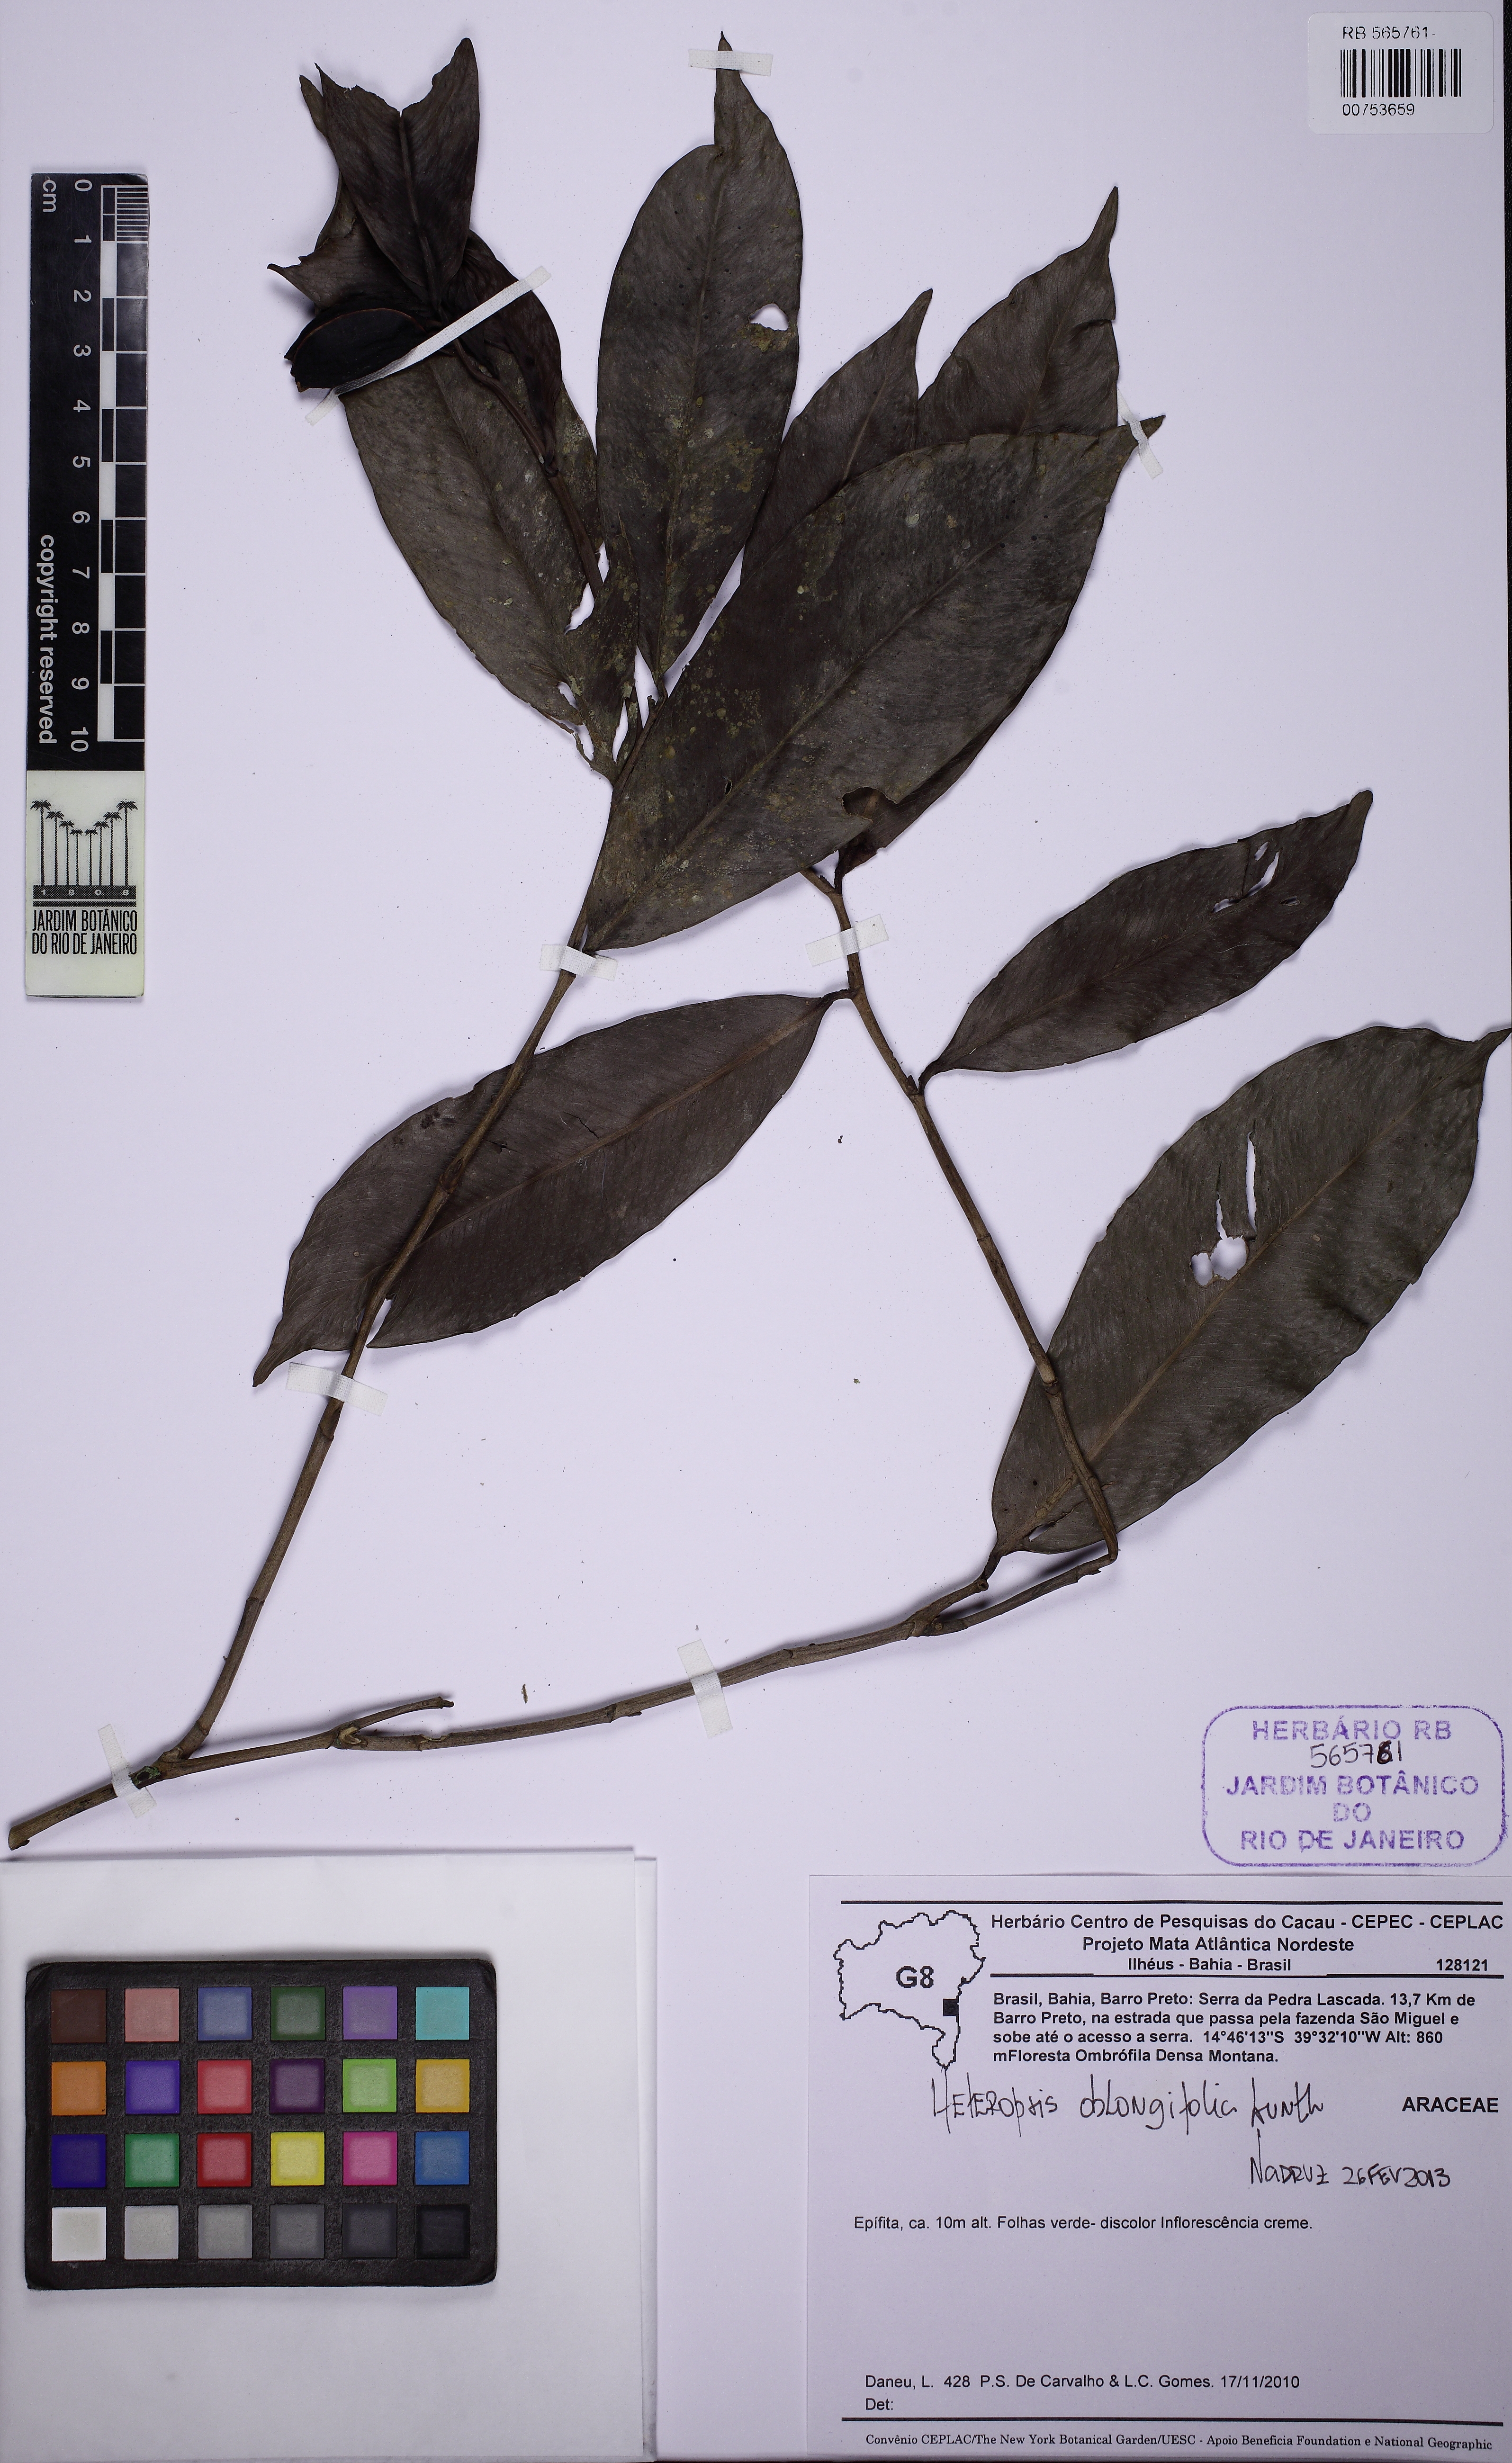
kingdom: Plantae
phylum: Tracheophyta
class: Liliopsida
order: Alismatales
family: Araceae
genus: Heteropsis
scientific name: Heteropsis oblongifolia
